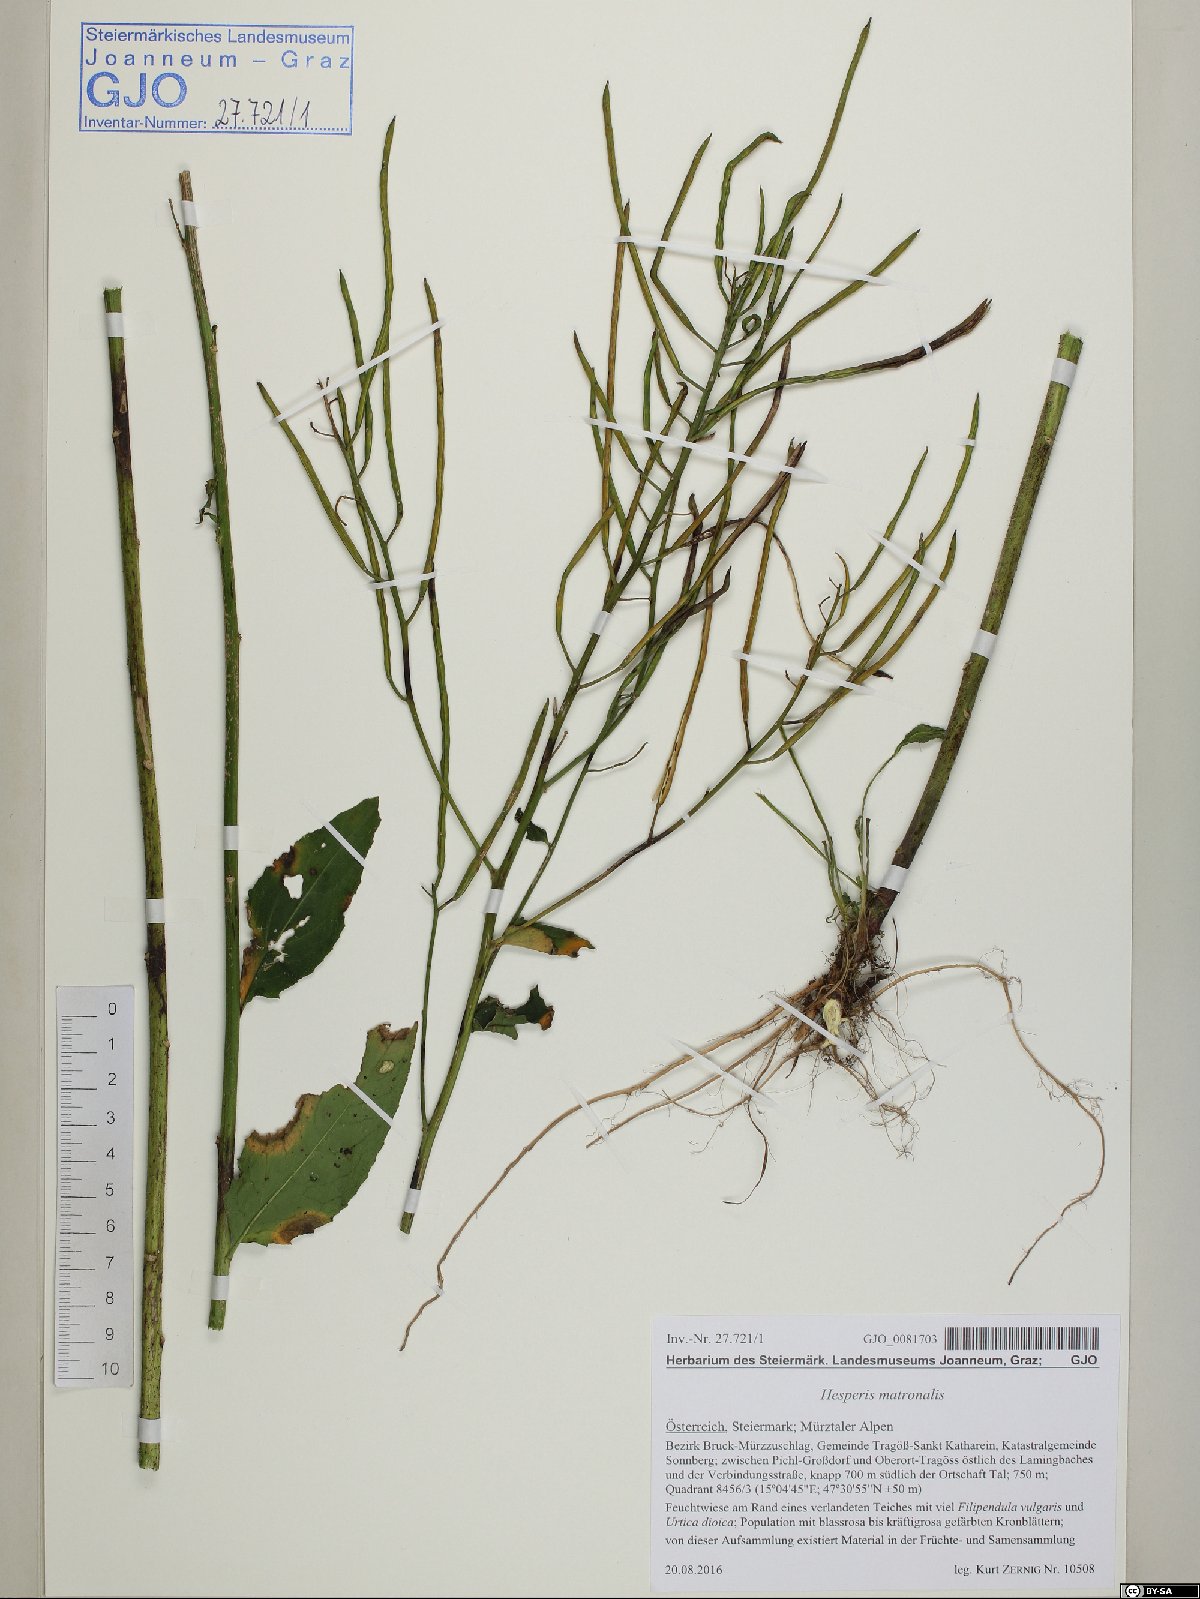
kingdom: Plantae
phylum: Tracheophyta
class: Magnoliopsida
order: Brassicales
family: Brassicaceae
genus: Hesperis
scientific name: Hesperis matronalis
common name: Dame's-violet
